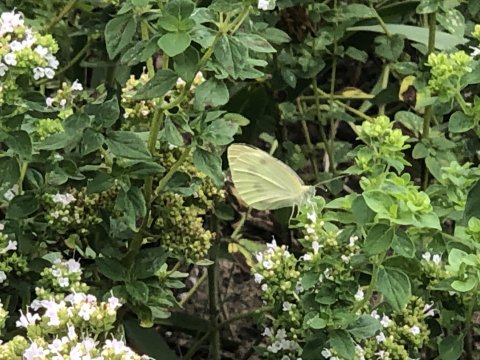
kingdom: Animalia
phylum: Arthropoda
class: Insecta
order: Lepidoptera
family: Pieridae
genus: Pieris
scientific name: Pieris rapae
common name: Cabbage White
